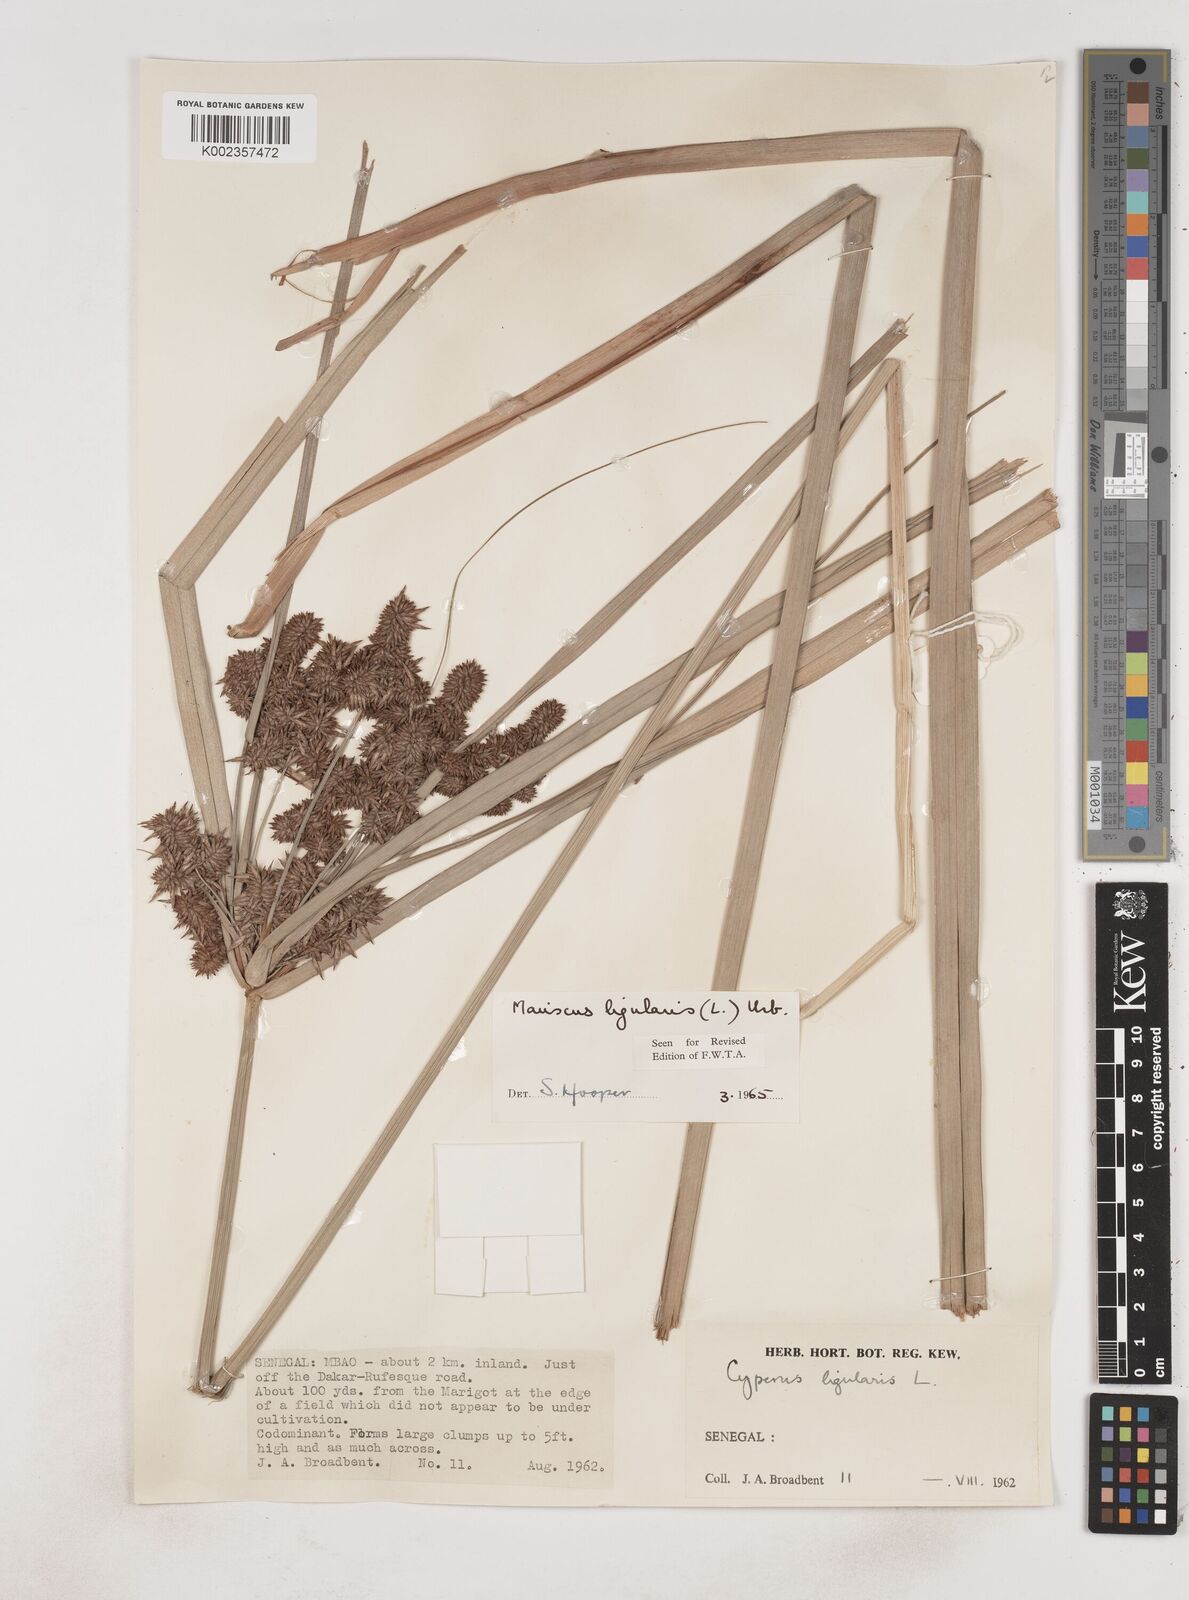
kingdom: Plantae
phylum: Tracheophyta
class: Liliopsida
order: Poales
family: Cyperaceae
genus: Cyperus
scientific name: Cyperus ligularis
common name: Swamp flat sedge
